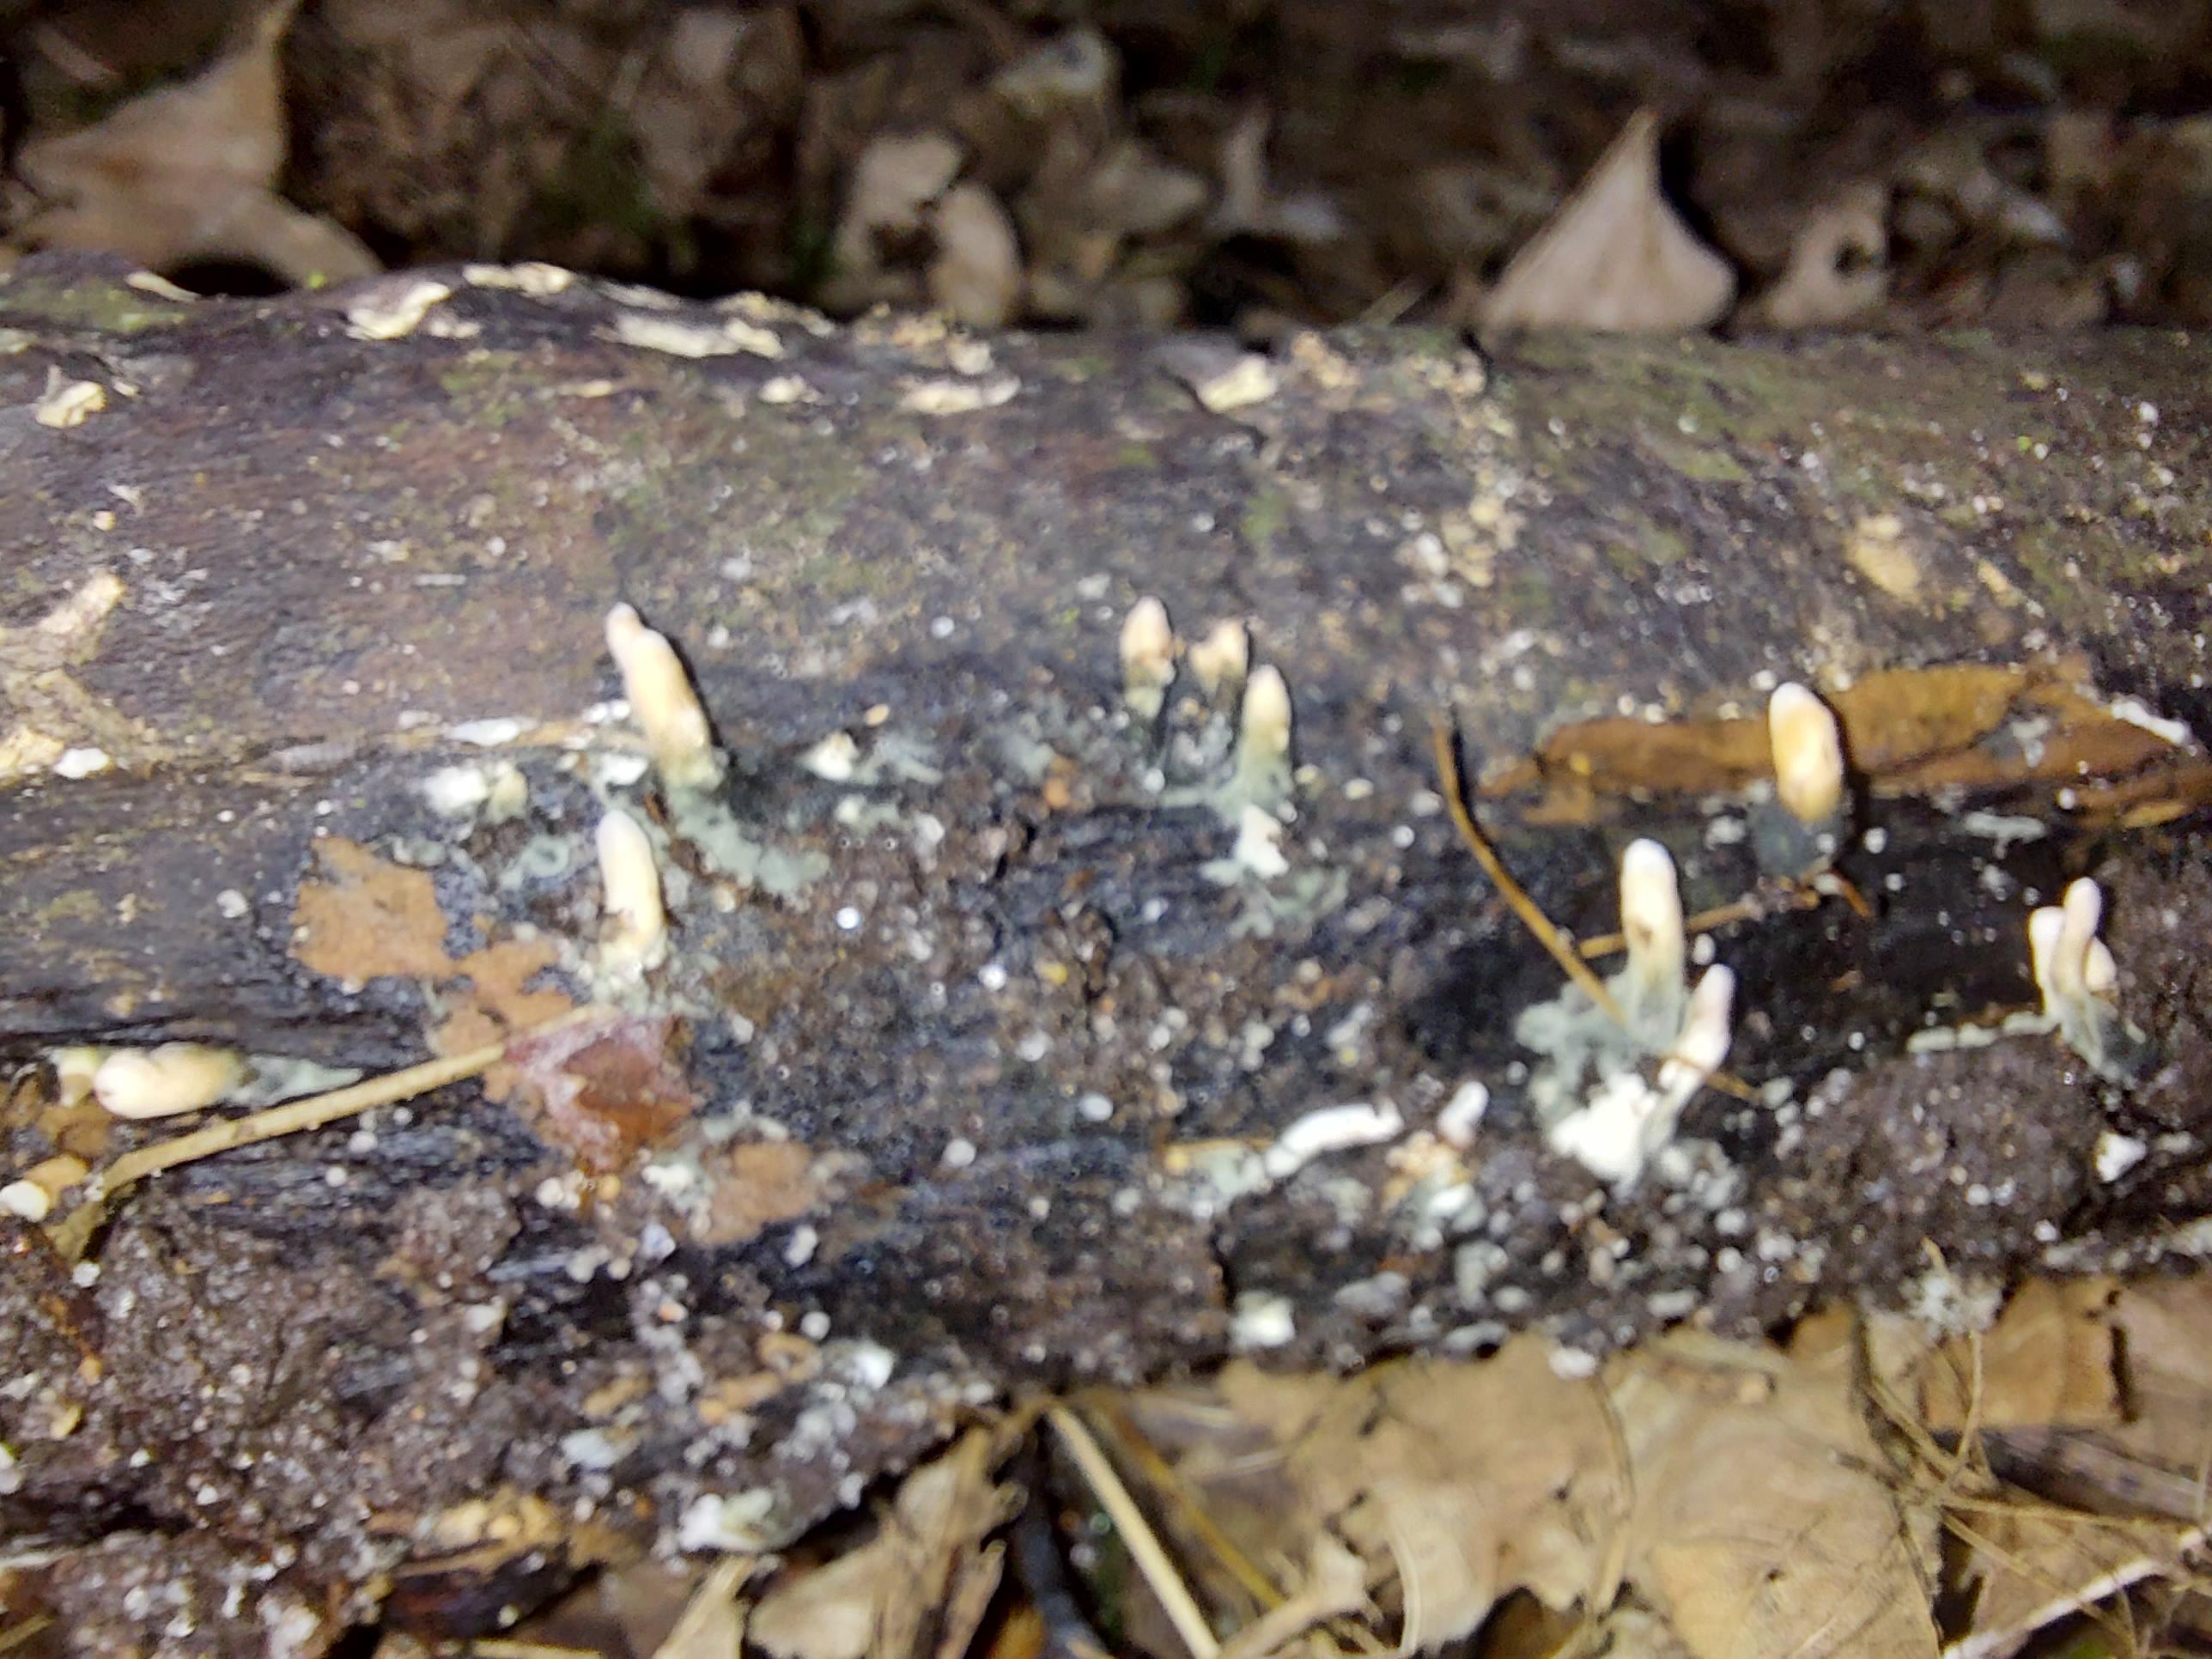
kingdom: Fungi
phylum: Ascomycota
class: Sordariomycetes
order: Xylariales
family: Xylariaceae
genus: Xylaria
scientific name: Xylaria longipes
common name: slank stødsvamp
